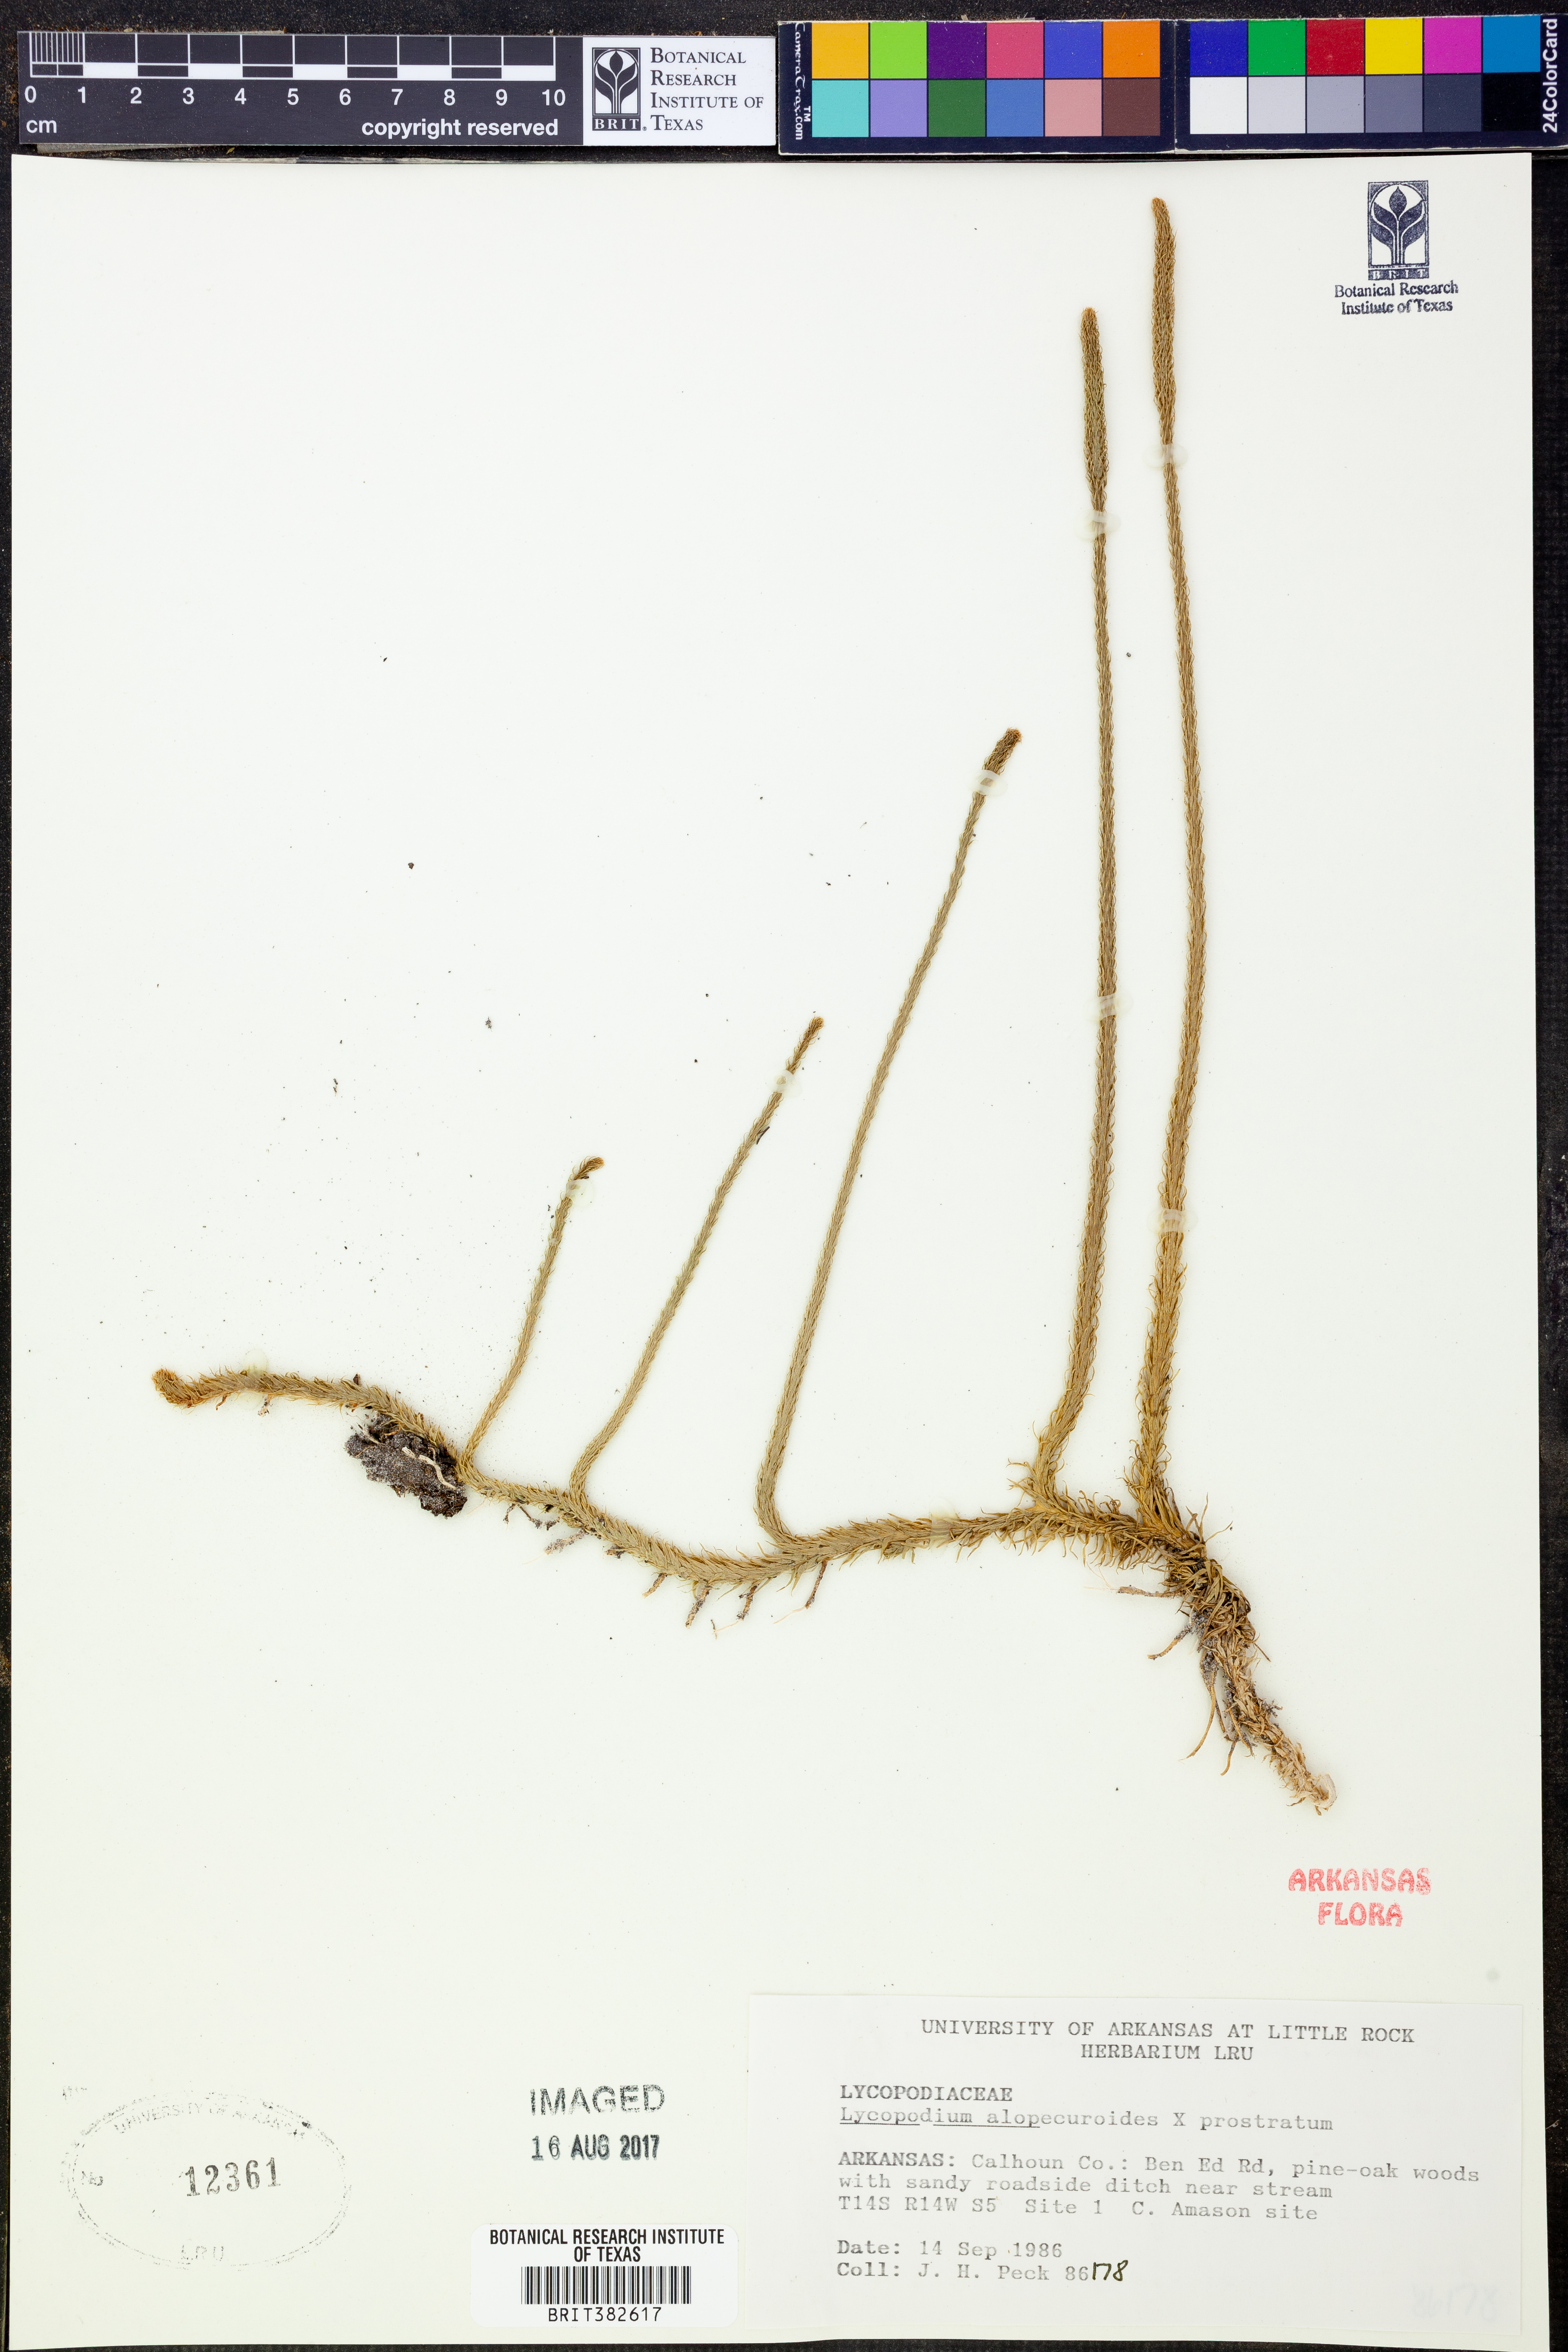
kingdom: Plantae
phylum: Tracheophyta
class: Lycopodiopsida
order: Lycopodiales
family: Lycopodiaceae
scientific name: Lycopodiaceae
